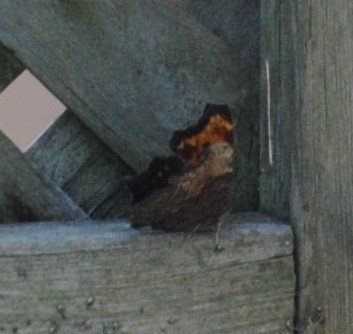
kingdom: Animalia
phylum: Arthropoda
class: Insecta
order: Lepidoptera
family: Nymphalidae
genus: Polygonia
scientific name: Polygonia progne
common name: Gray Comma
